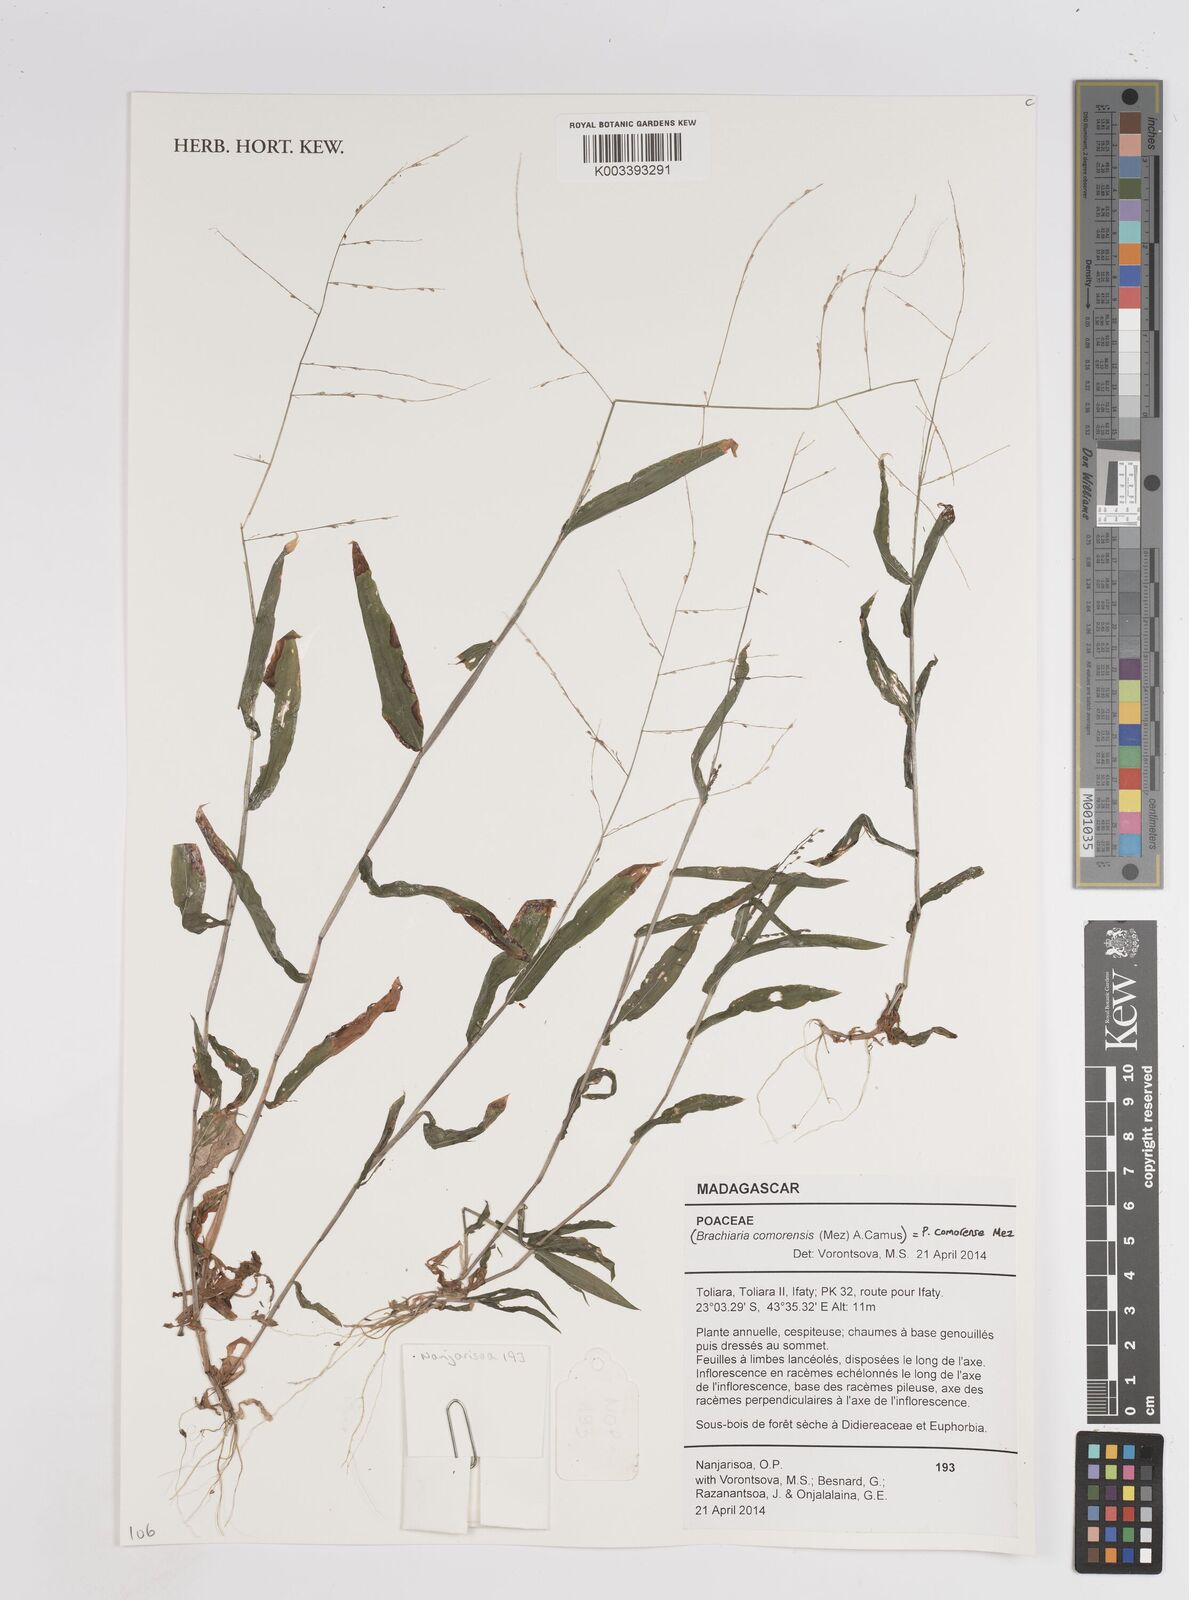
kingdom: Plantae
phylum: Tracheophyta
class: Liliopsida
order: Poales
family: Poaceae
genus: Panicum
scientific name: Panicum comorense
